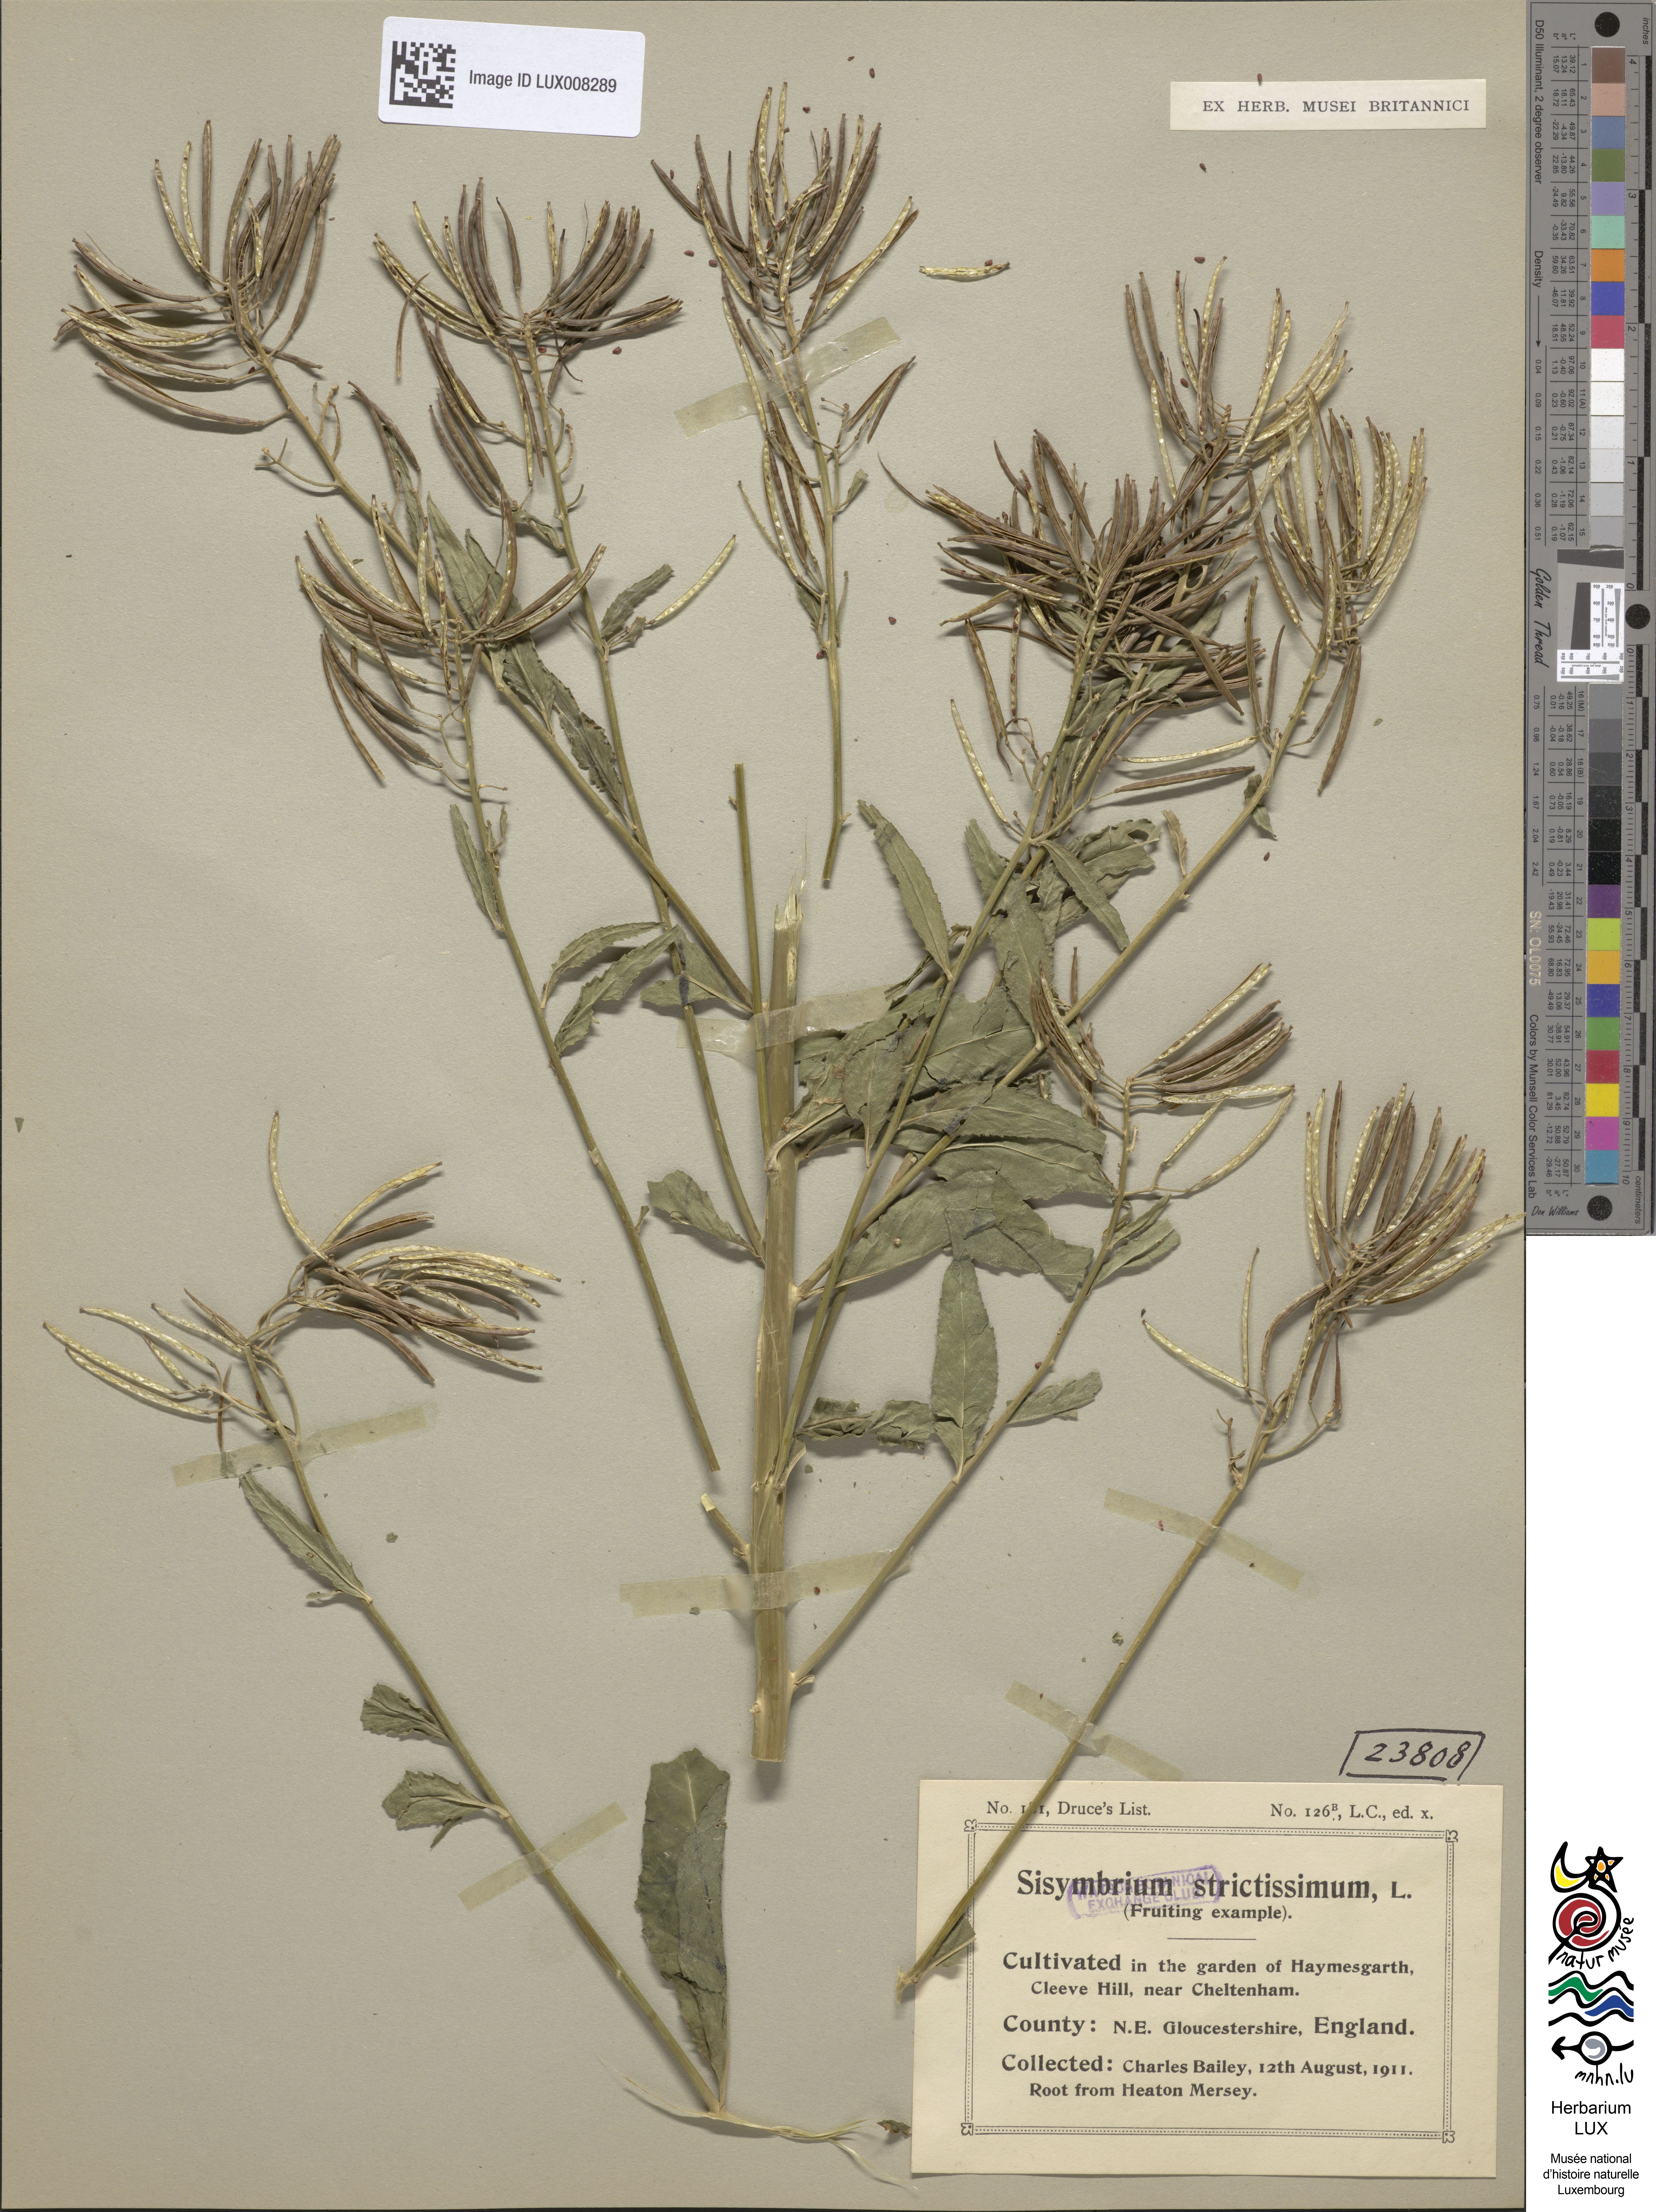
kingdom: Plantae
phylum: Tracheophyta
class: Magnoliopsida
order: Brassicales
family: Brassicaceae
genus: Sisymbrium
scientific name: Sisymbrium strictissimum
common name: Perennial rocket
